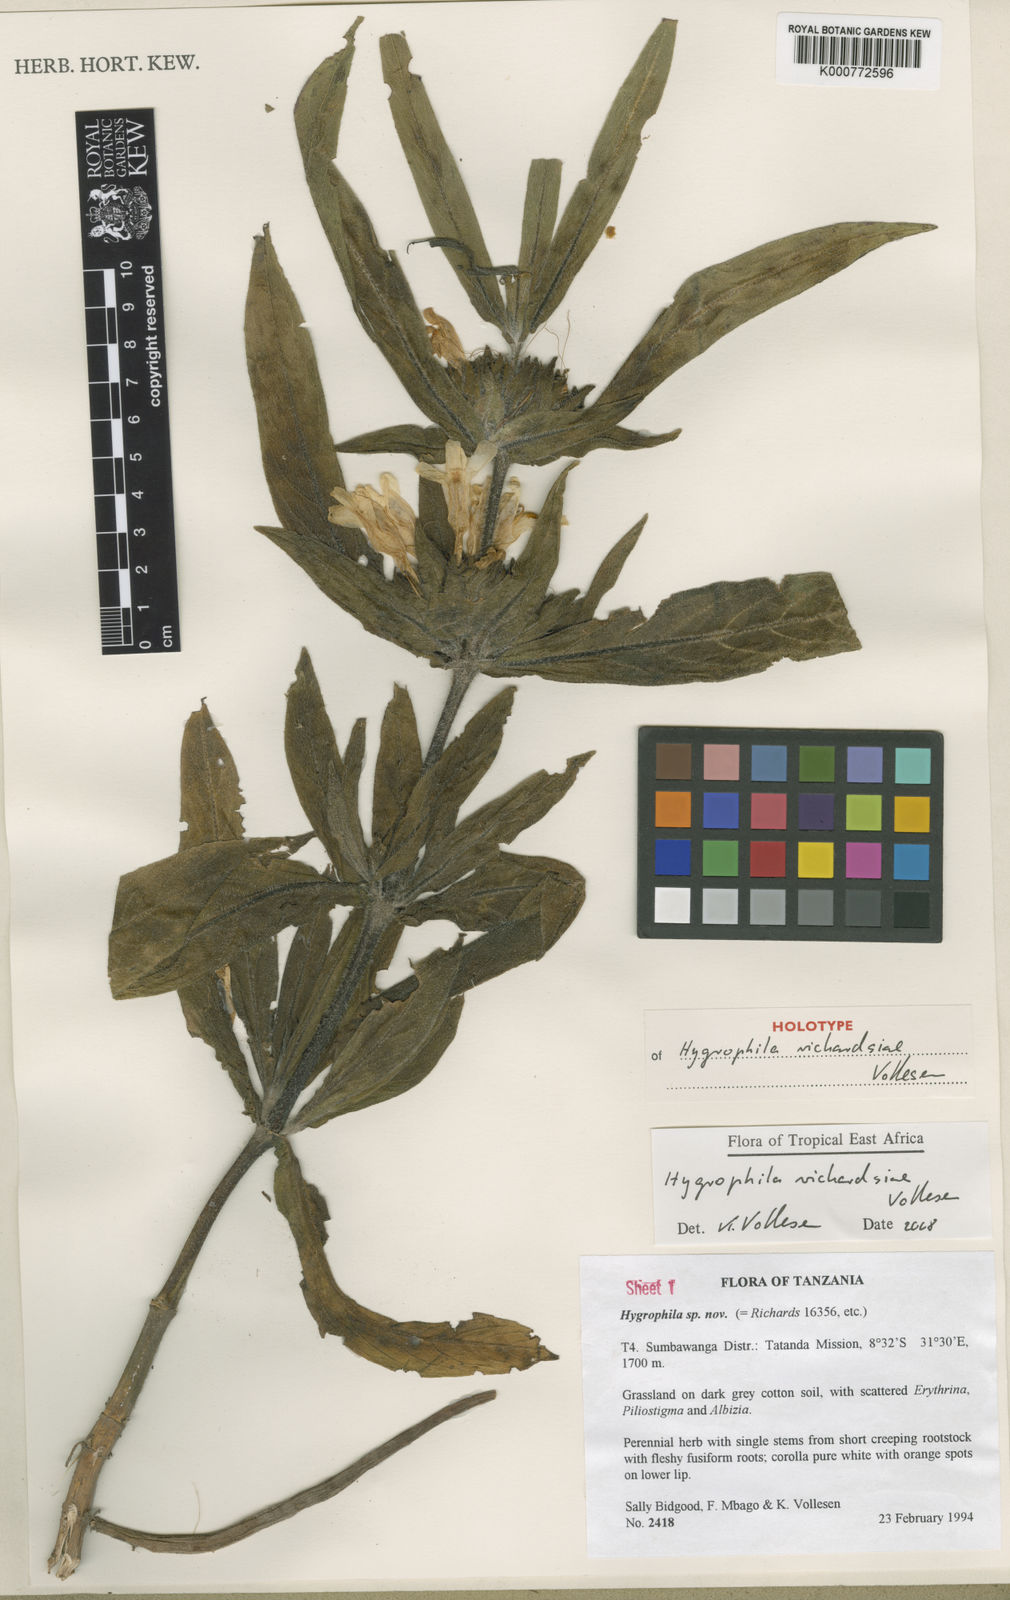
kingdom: Plantae
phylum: Tracheophyta
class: Magnoliopsida
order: Lamiales
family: Acanthaceae
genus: Hygrophila
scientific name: Hygrophila richardsiae
